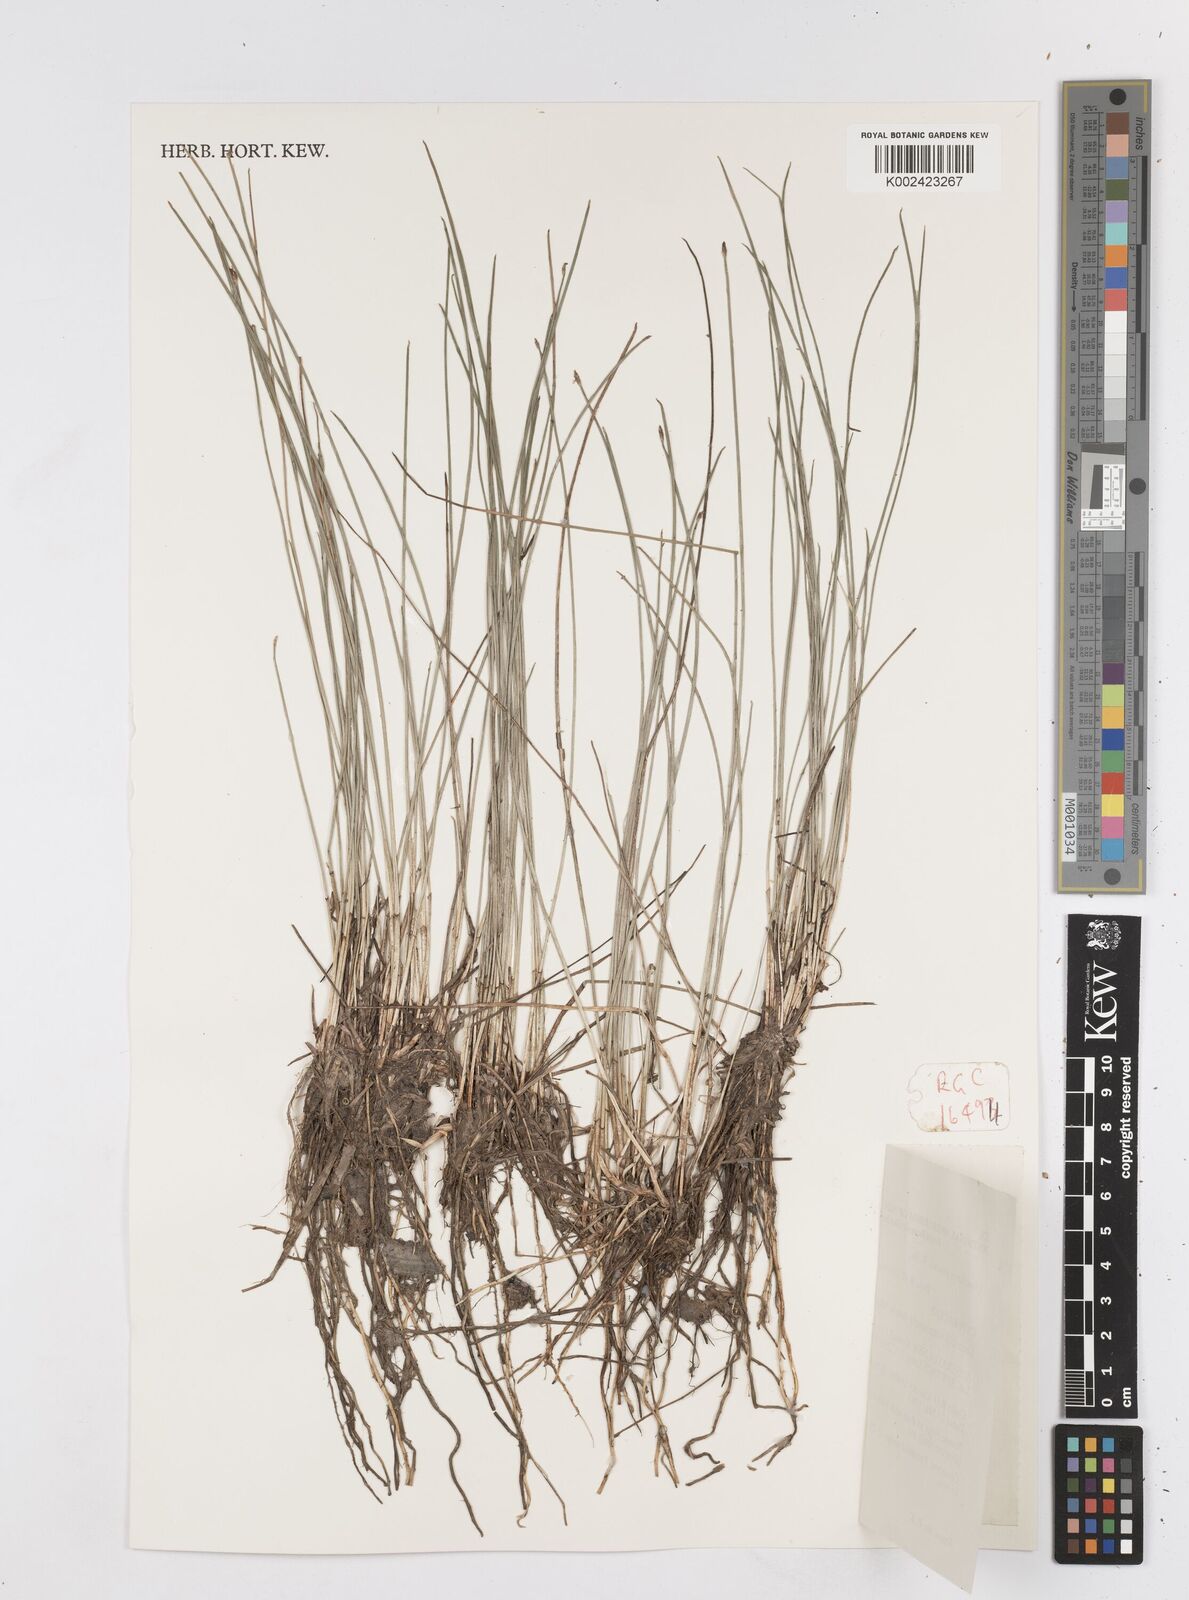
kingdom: Plantae
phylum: Tracheophyta
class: Liliopsida
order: Poales
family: Cyperaceae
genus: Eleocharis
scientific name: Eleocharis multicaulis
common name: Many-stalked spike-rush
